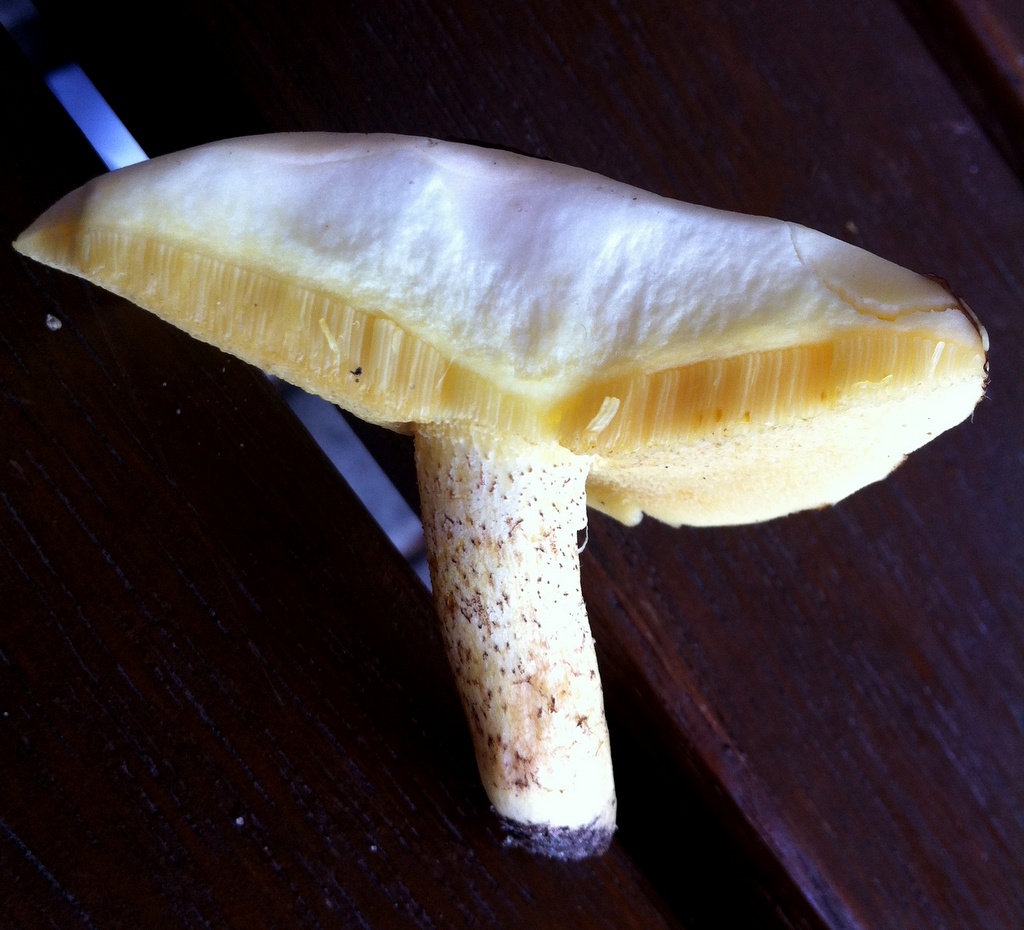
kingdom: Fungi
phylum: Basidiomycota
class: Agaricomycetes
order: Boletales
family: Suillaceae
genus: Suillus
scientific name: Suillus granulatus
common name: kornet slimrørhat
